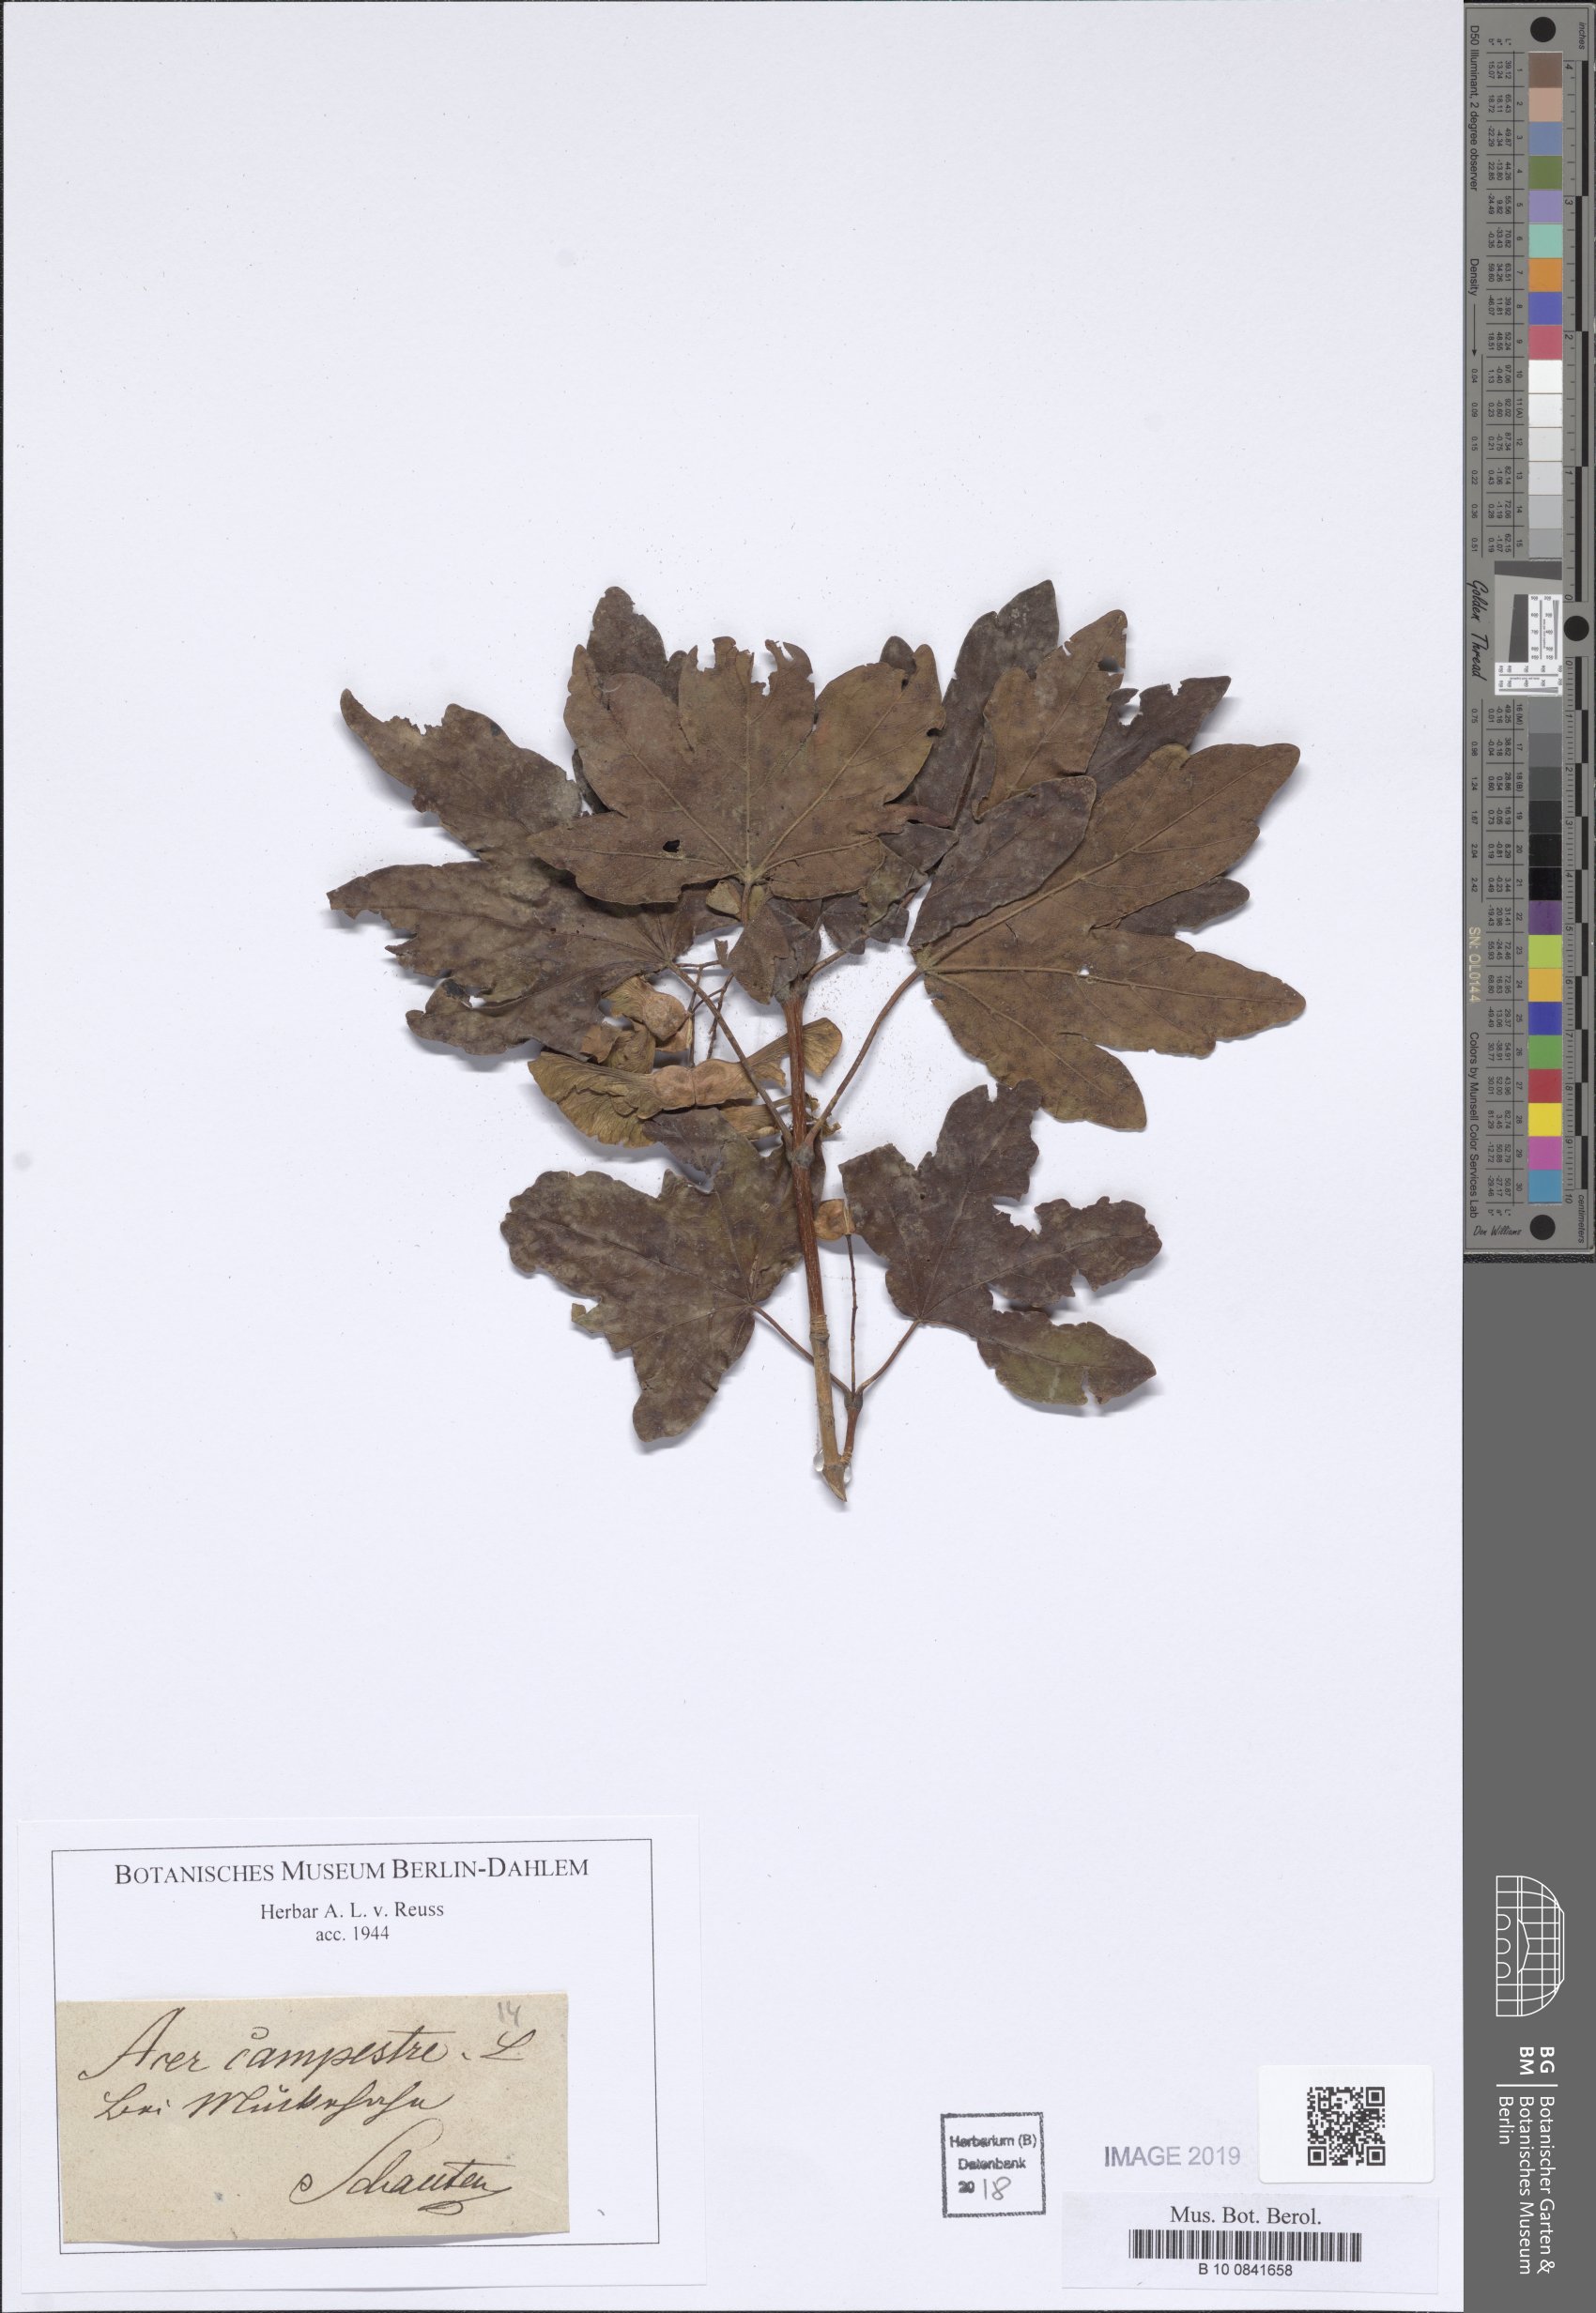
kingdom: Plantae
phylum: Tracheophyta
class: Magnoliopsida
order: Sapindales
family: Sapindaceae
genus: Acer
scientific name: Acer campestre
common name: Field maple
